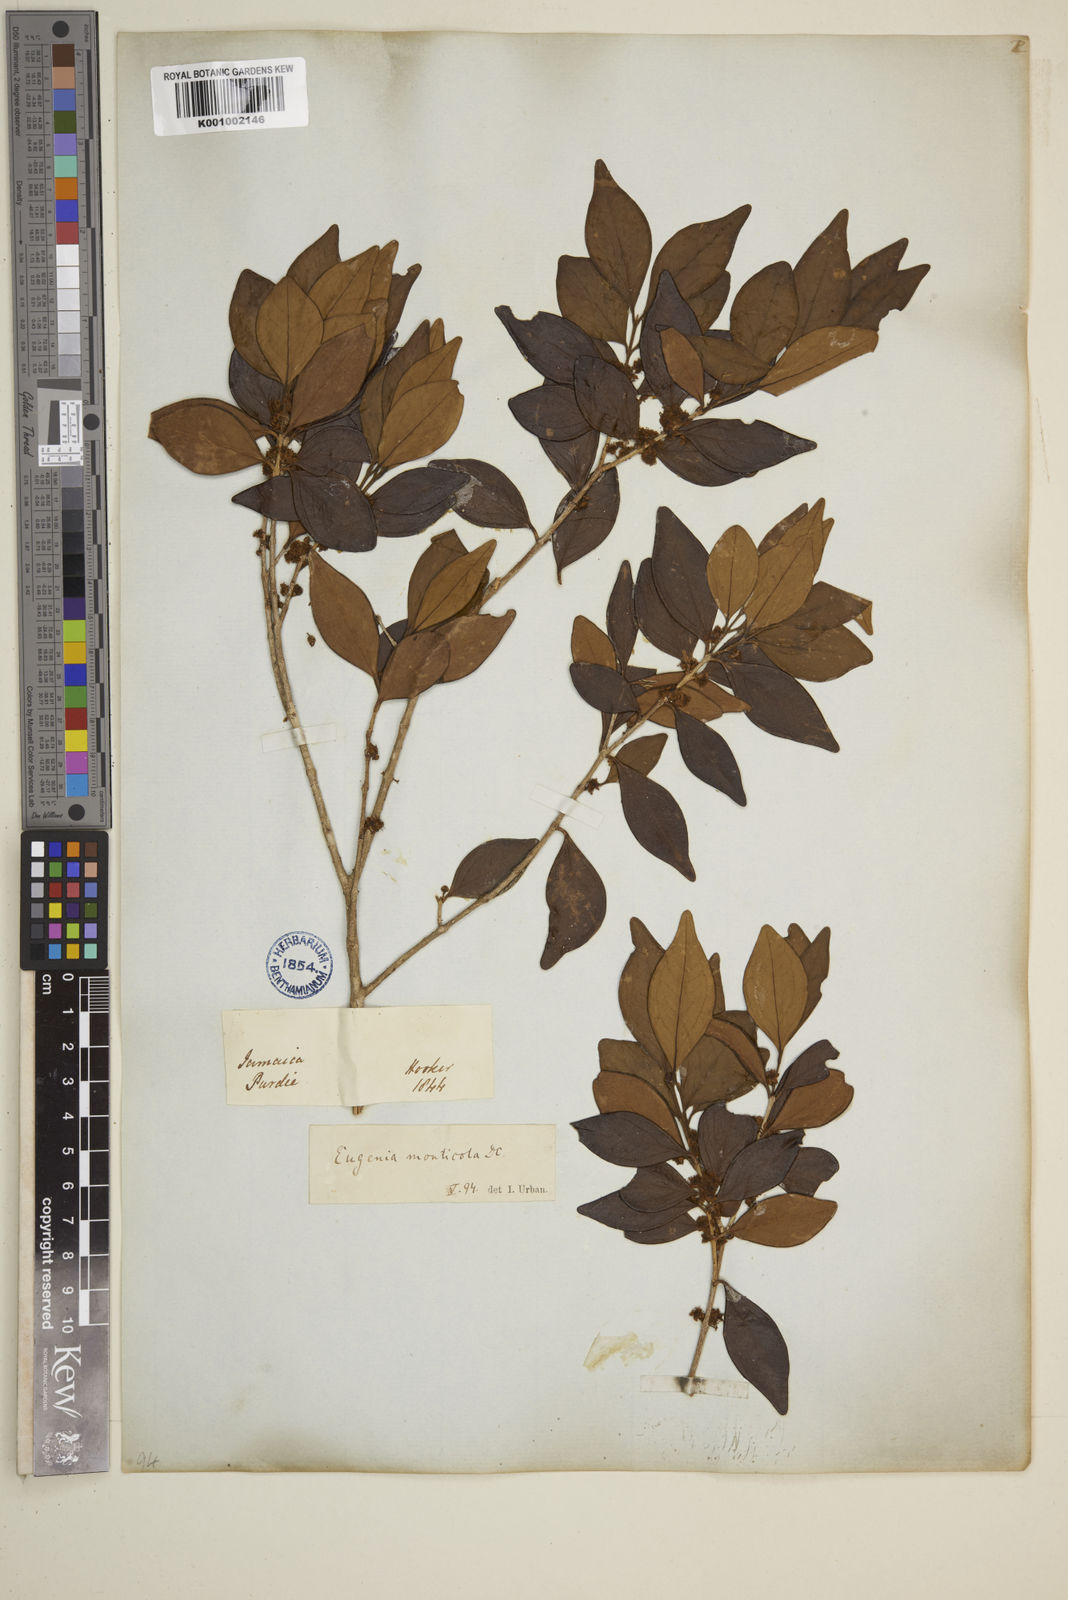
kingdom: Plantae
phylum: Tracheophyta
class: Magnoliopsida
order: Myrtales
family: Myrtaceae
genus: Eugenia
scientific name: Eugenia monticola
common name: Birds berry
